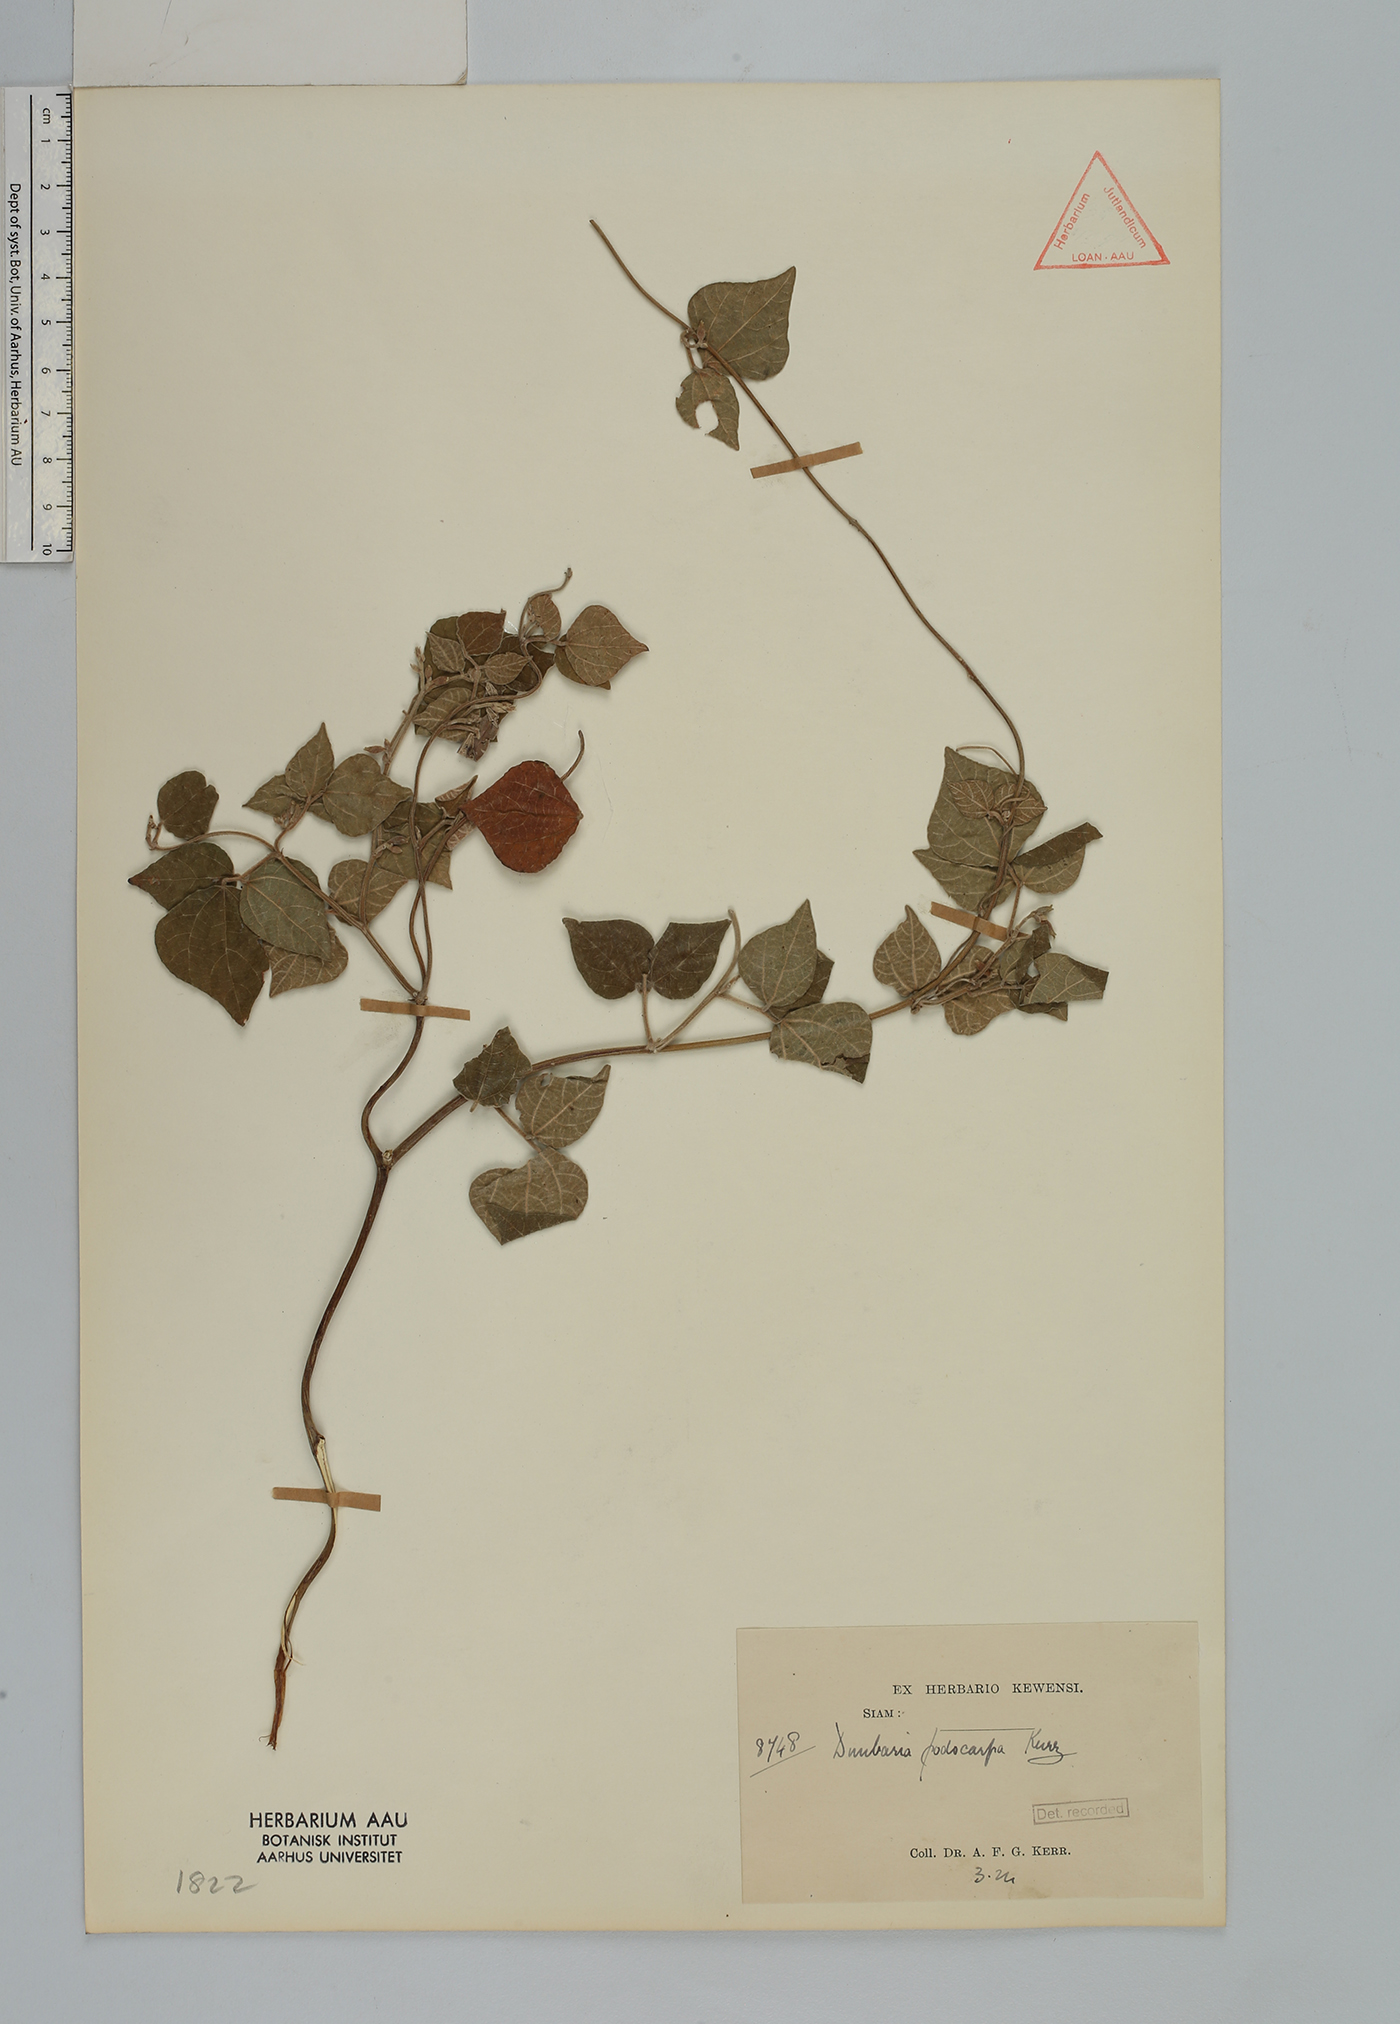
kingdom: Plantae
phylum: Tracheophyta
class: Magnoliopsida
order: Fabales
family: Fabaceae
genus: Dunbaria
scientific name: Dunbaria podocarpa
